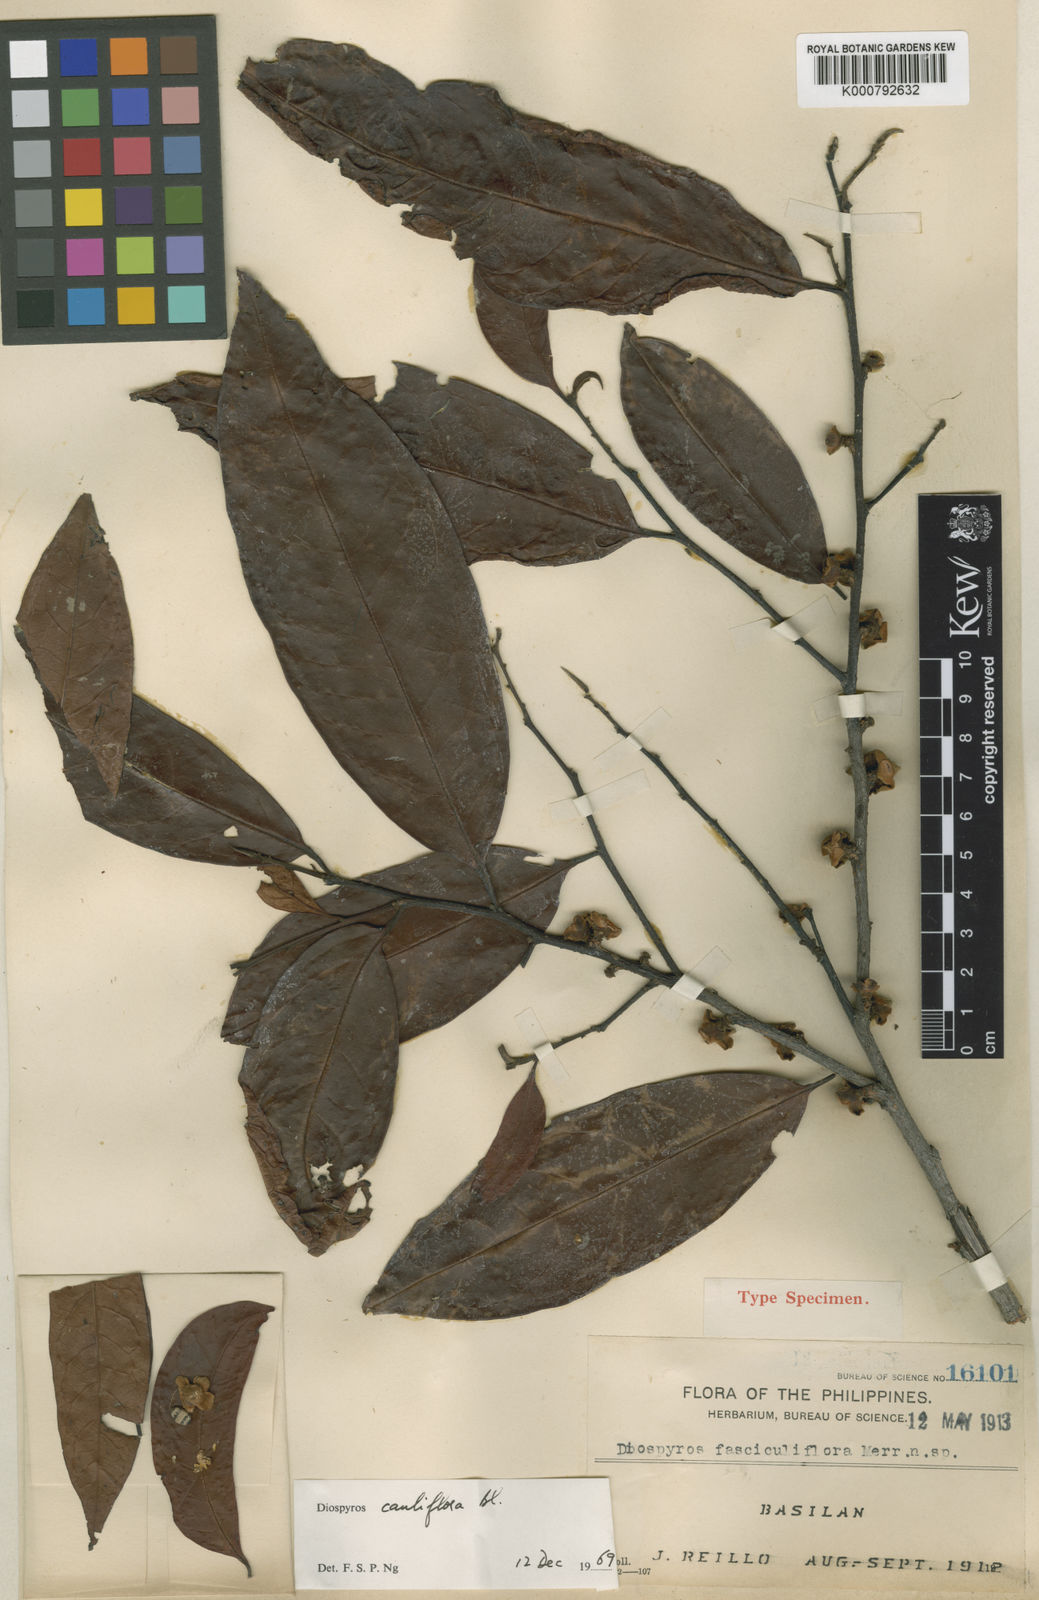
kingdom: Plantae
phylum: Tracheophyta
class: Magnoliopsida
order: Ericales
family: Ebenaceae
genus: Diospyros
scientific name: Diospyros cauliflora
